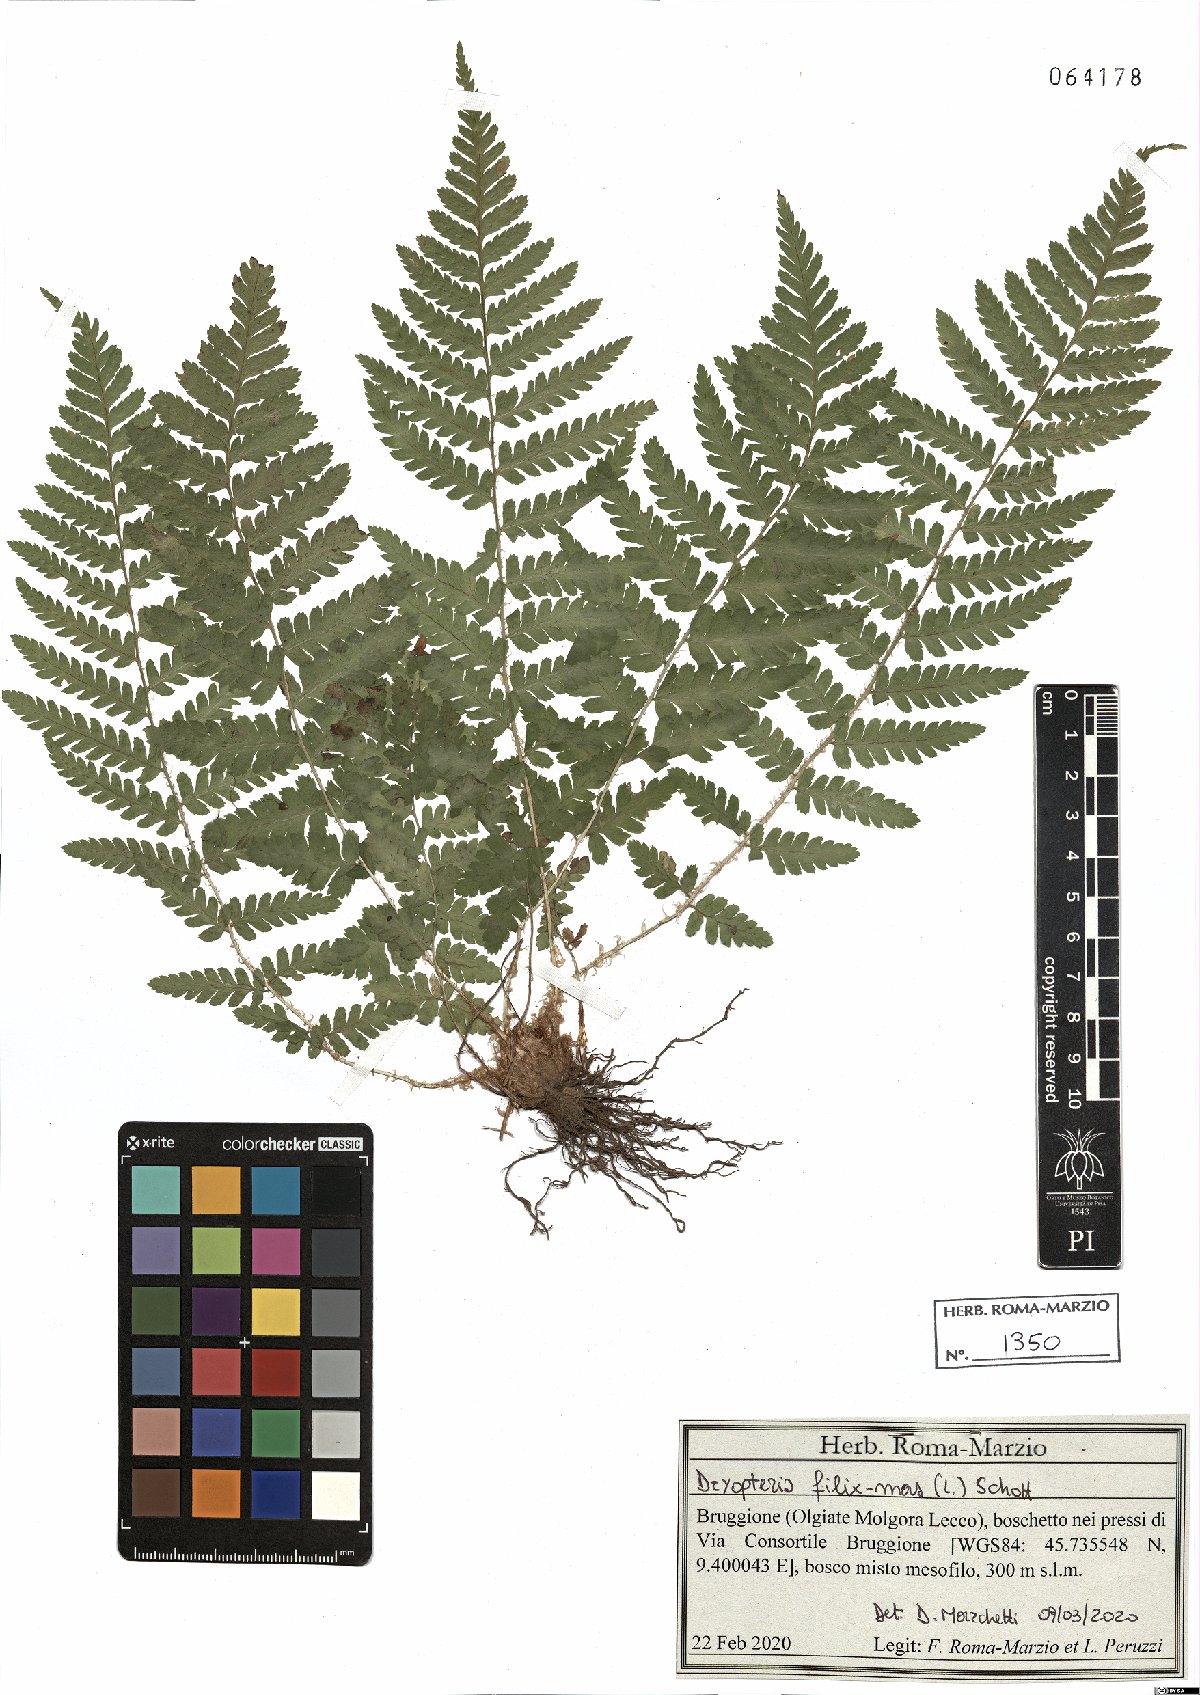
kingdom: Plantae
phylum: Tracheophyta
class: Polypodiopsida
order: Polypodiales
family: Dryopteridaceae
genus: Dryopteris
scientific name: Dryopteris filix-mas
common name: Male fern
